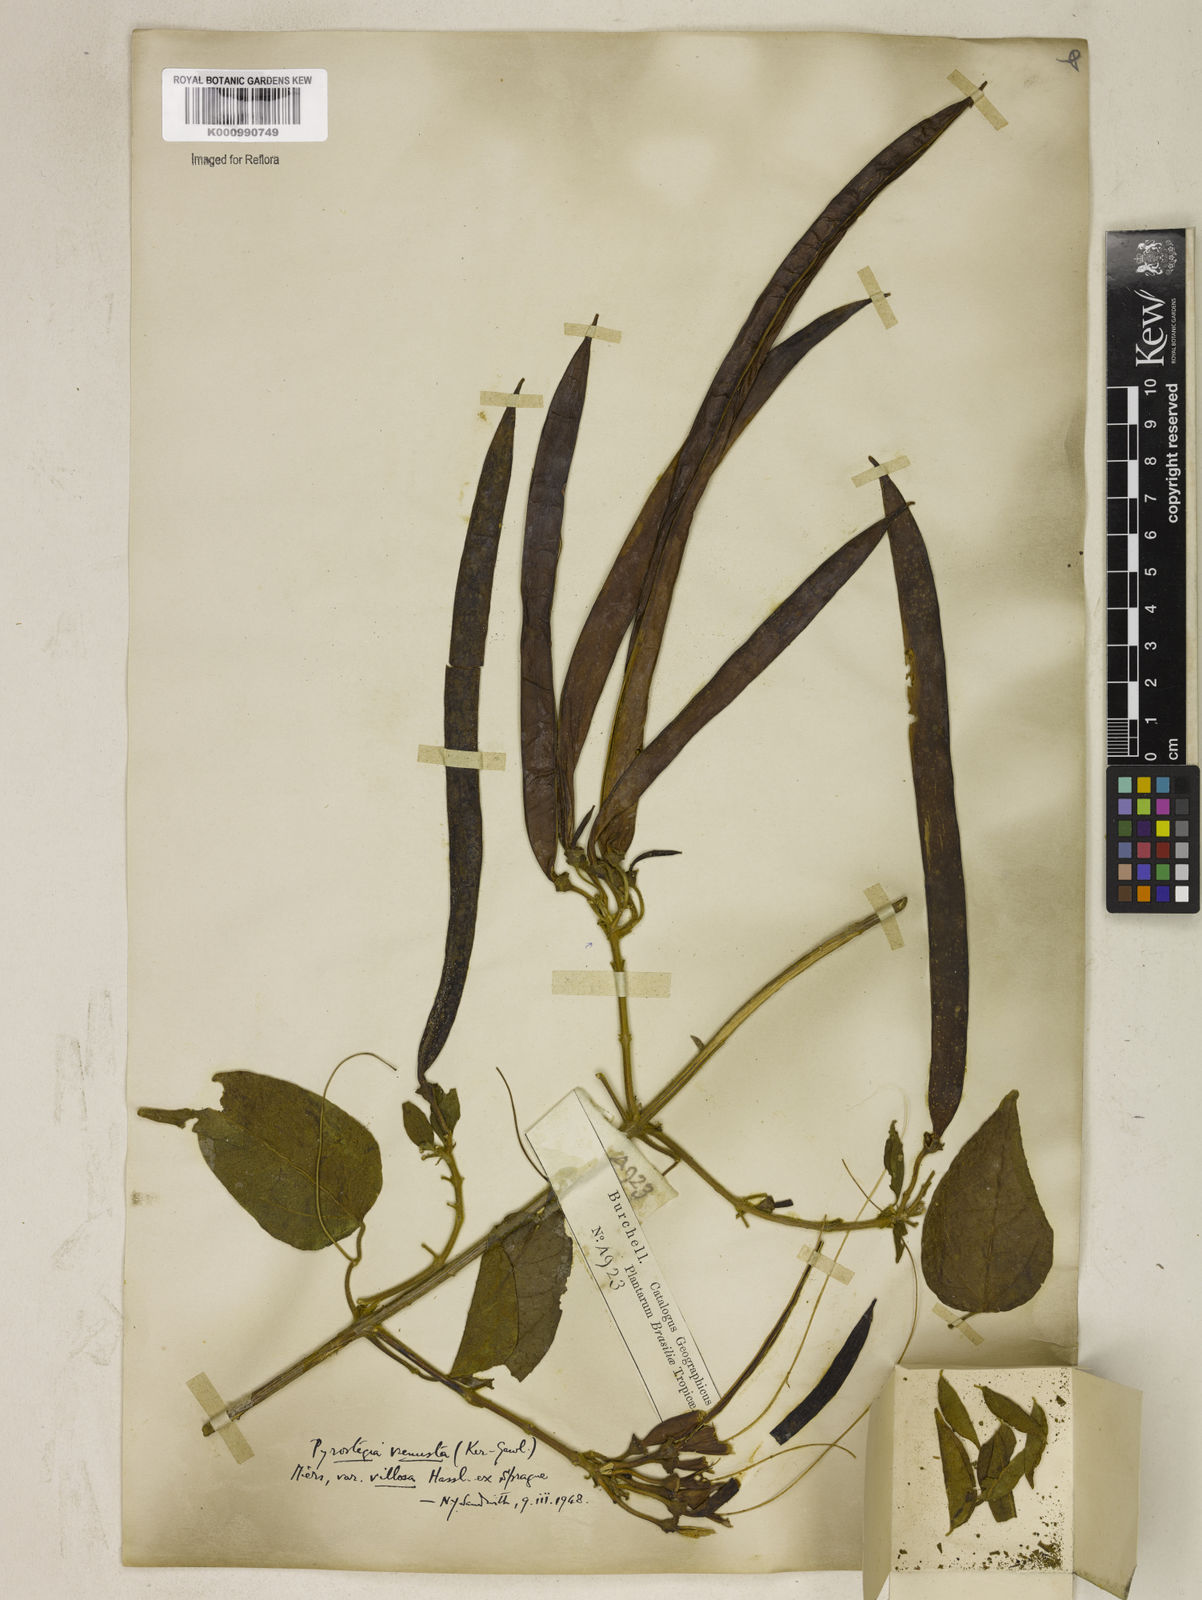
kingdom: Plantae
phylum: Tracheophyta
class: Magnoliopsida
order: Lamiales
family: Bignoniaceae
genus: Pyrostegia
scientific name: Pyrostegia venusta
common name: Flamevine
